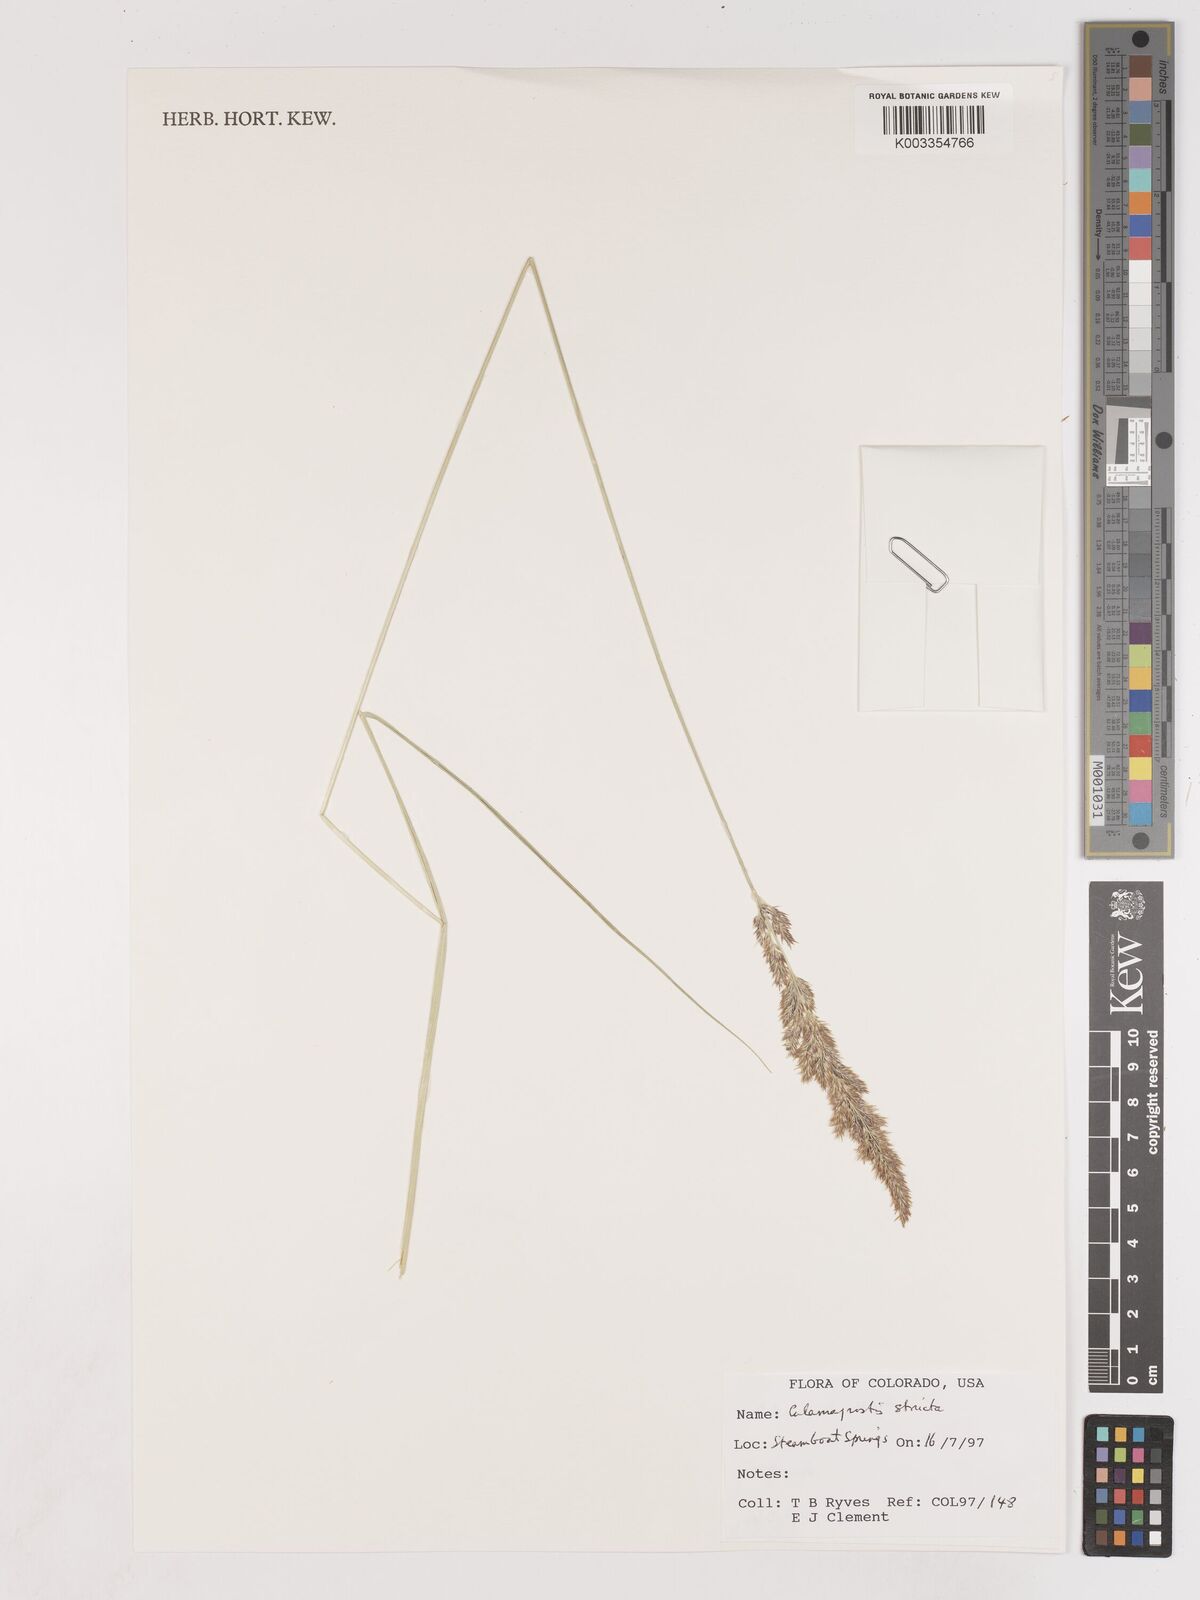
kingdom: Plantae
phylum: Tracheophyta
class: Liliopsida
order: Poales
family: Poaceae
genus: Cinnagrostis
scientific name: Cinnagrostis recta
